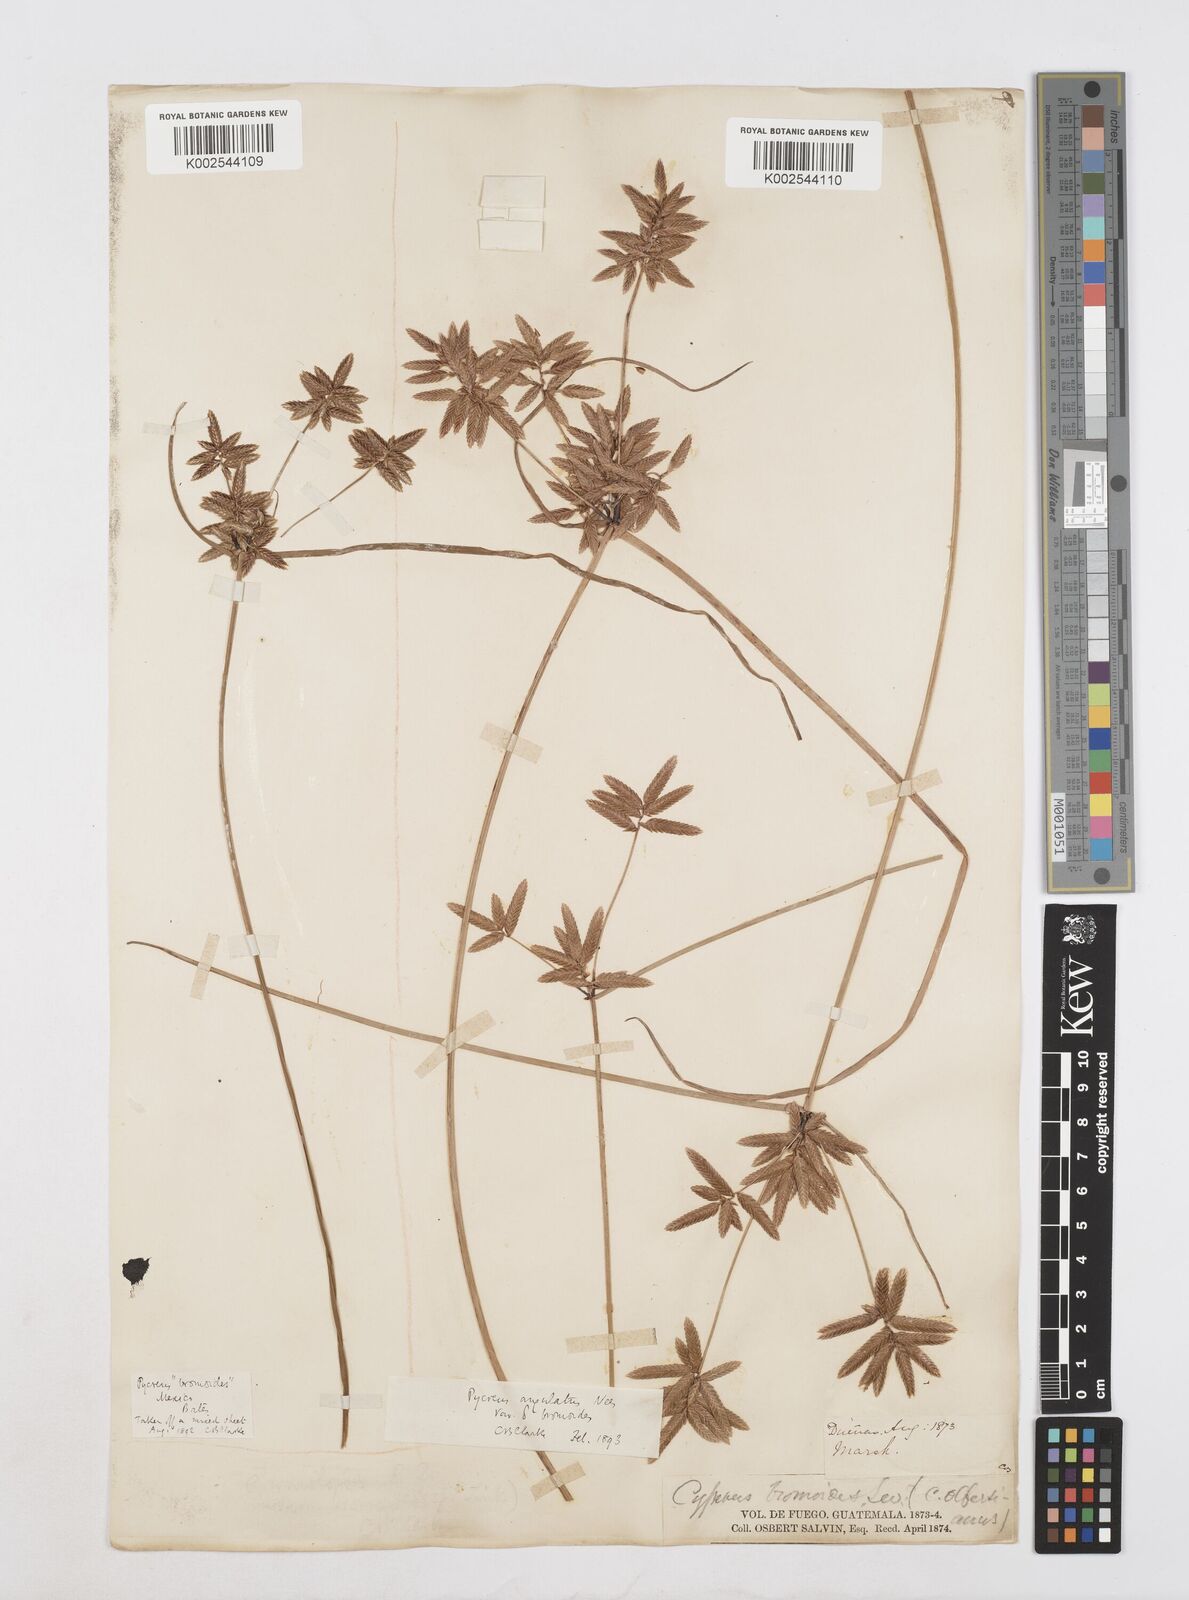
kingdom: Plantae
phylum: Tracheophyta
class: Liliopsida
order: Poales
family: Cyperaceae
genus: Cyperus
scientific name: Cyperus unioloides
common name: Uniola flatsedge
